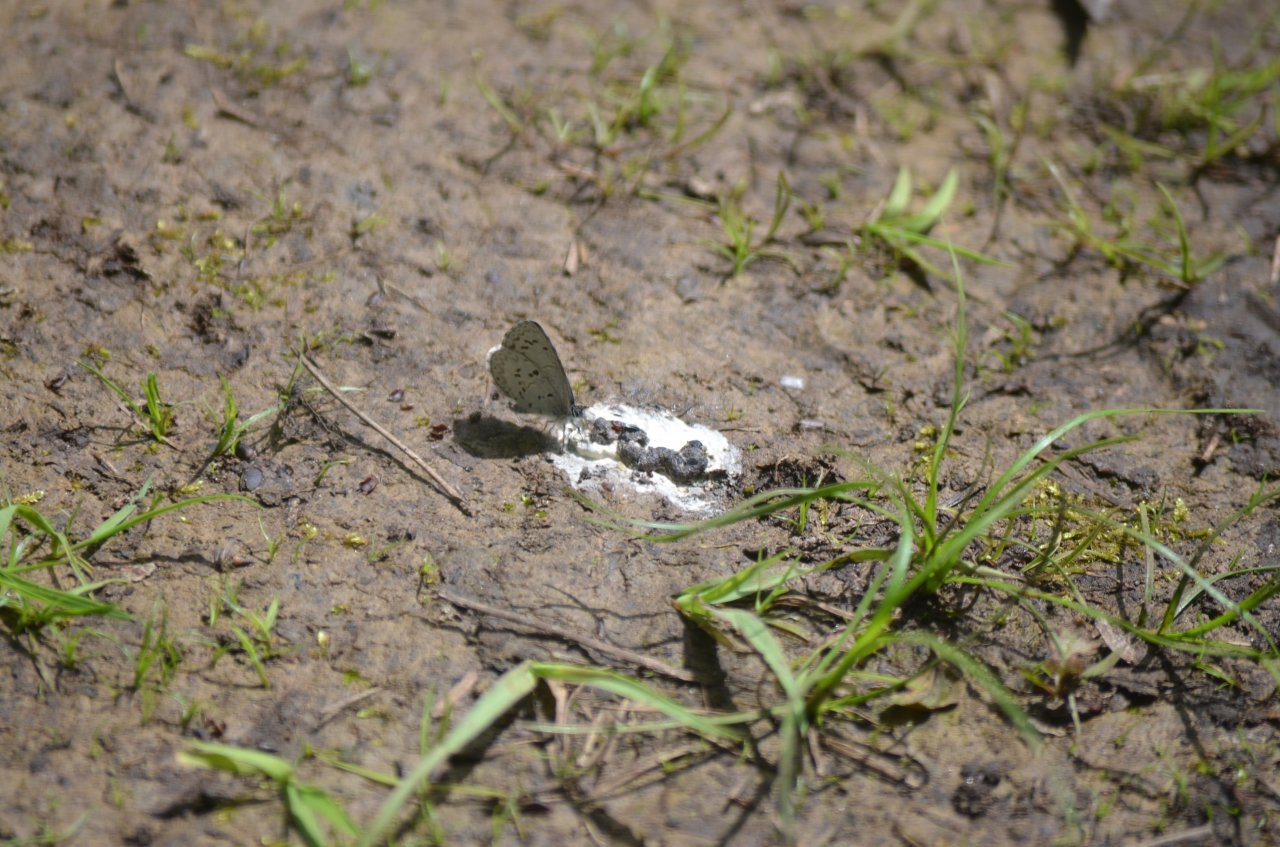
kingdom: Animalia
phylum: Arthropoda
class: Insecta
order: Lepidoptera
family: Lycaenidae
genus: Celastrina
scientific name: Celastrina lucia
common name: Northern Spring Azure
